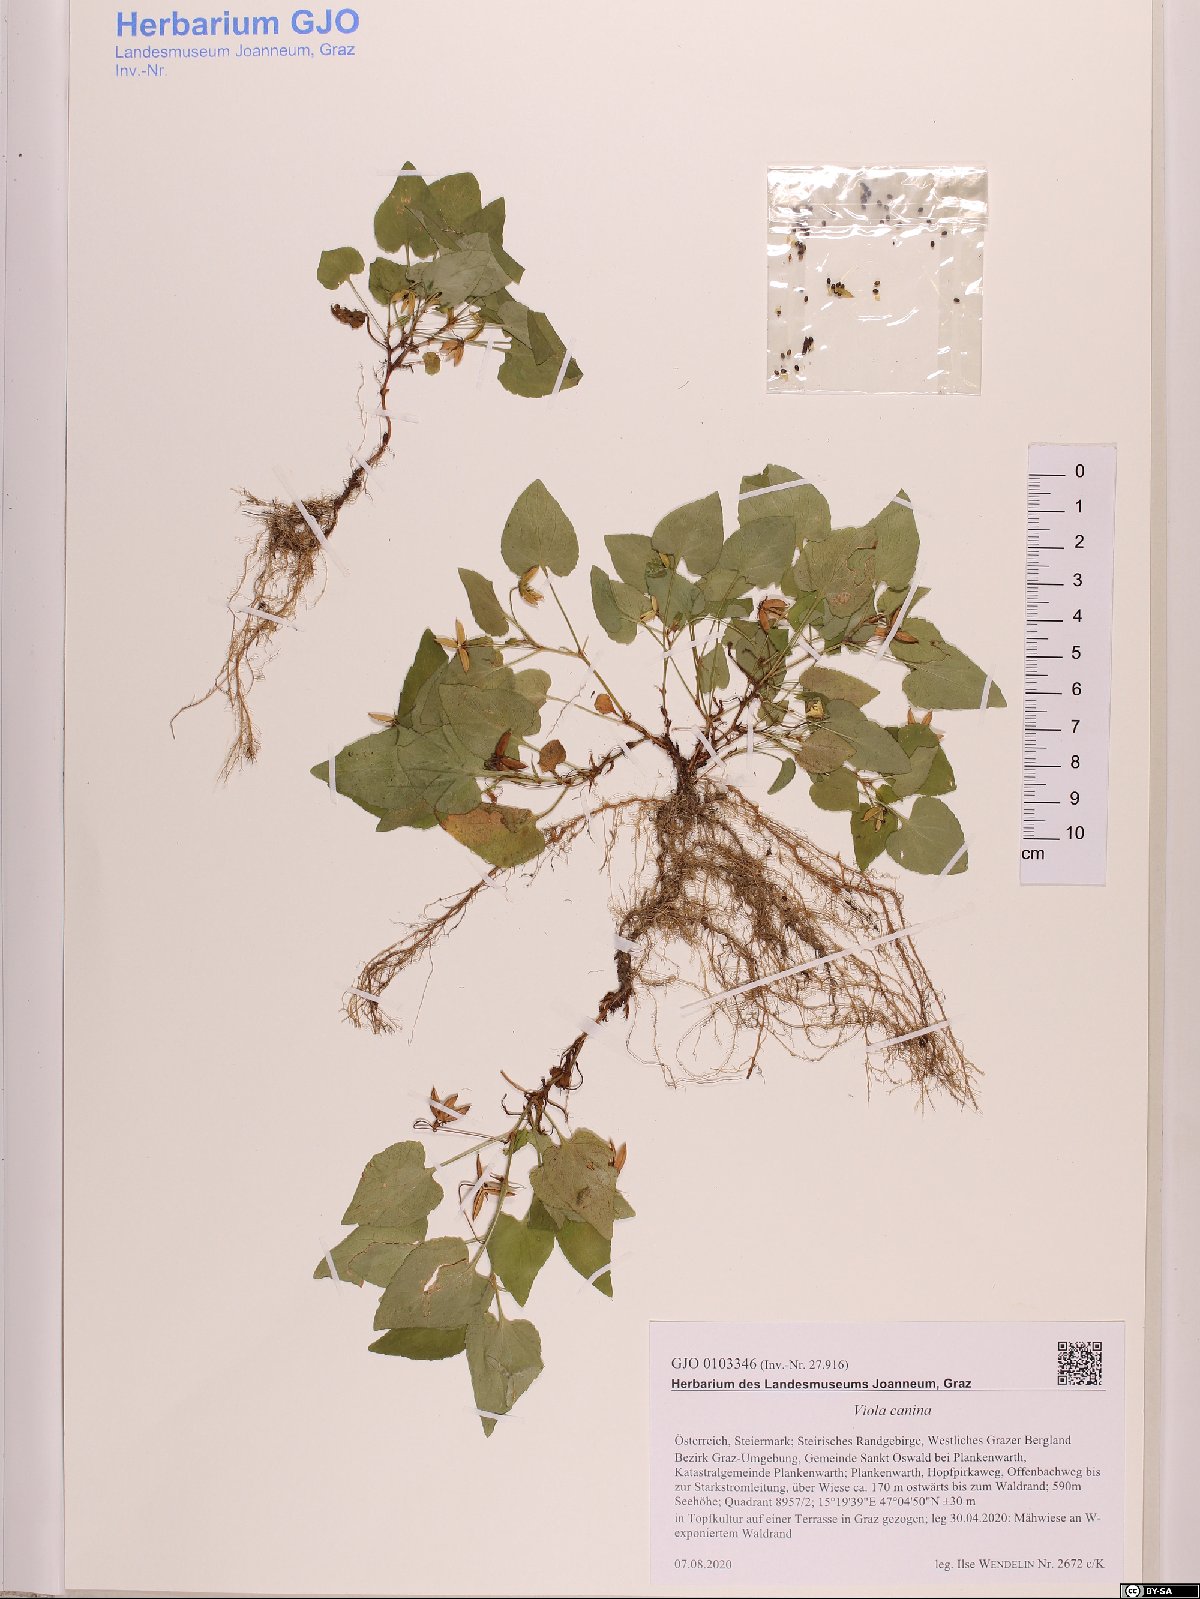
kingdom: Plantae
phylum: Tracheophyta
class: Magnoliopsida
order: Malpighiales
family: Violaceae
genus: Viola
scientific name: Viola riviniana
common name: Common dog-violet
